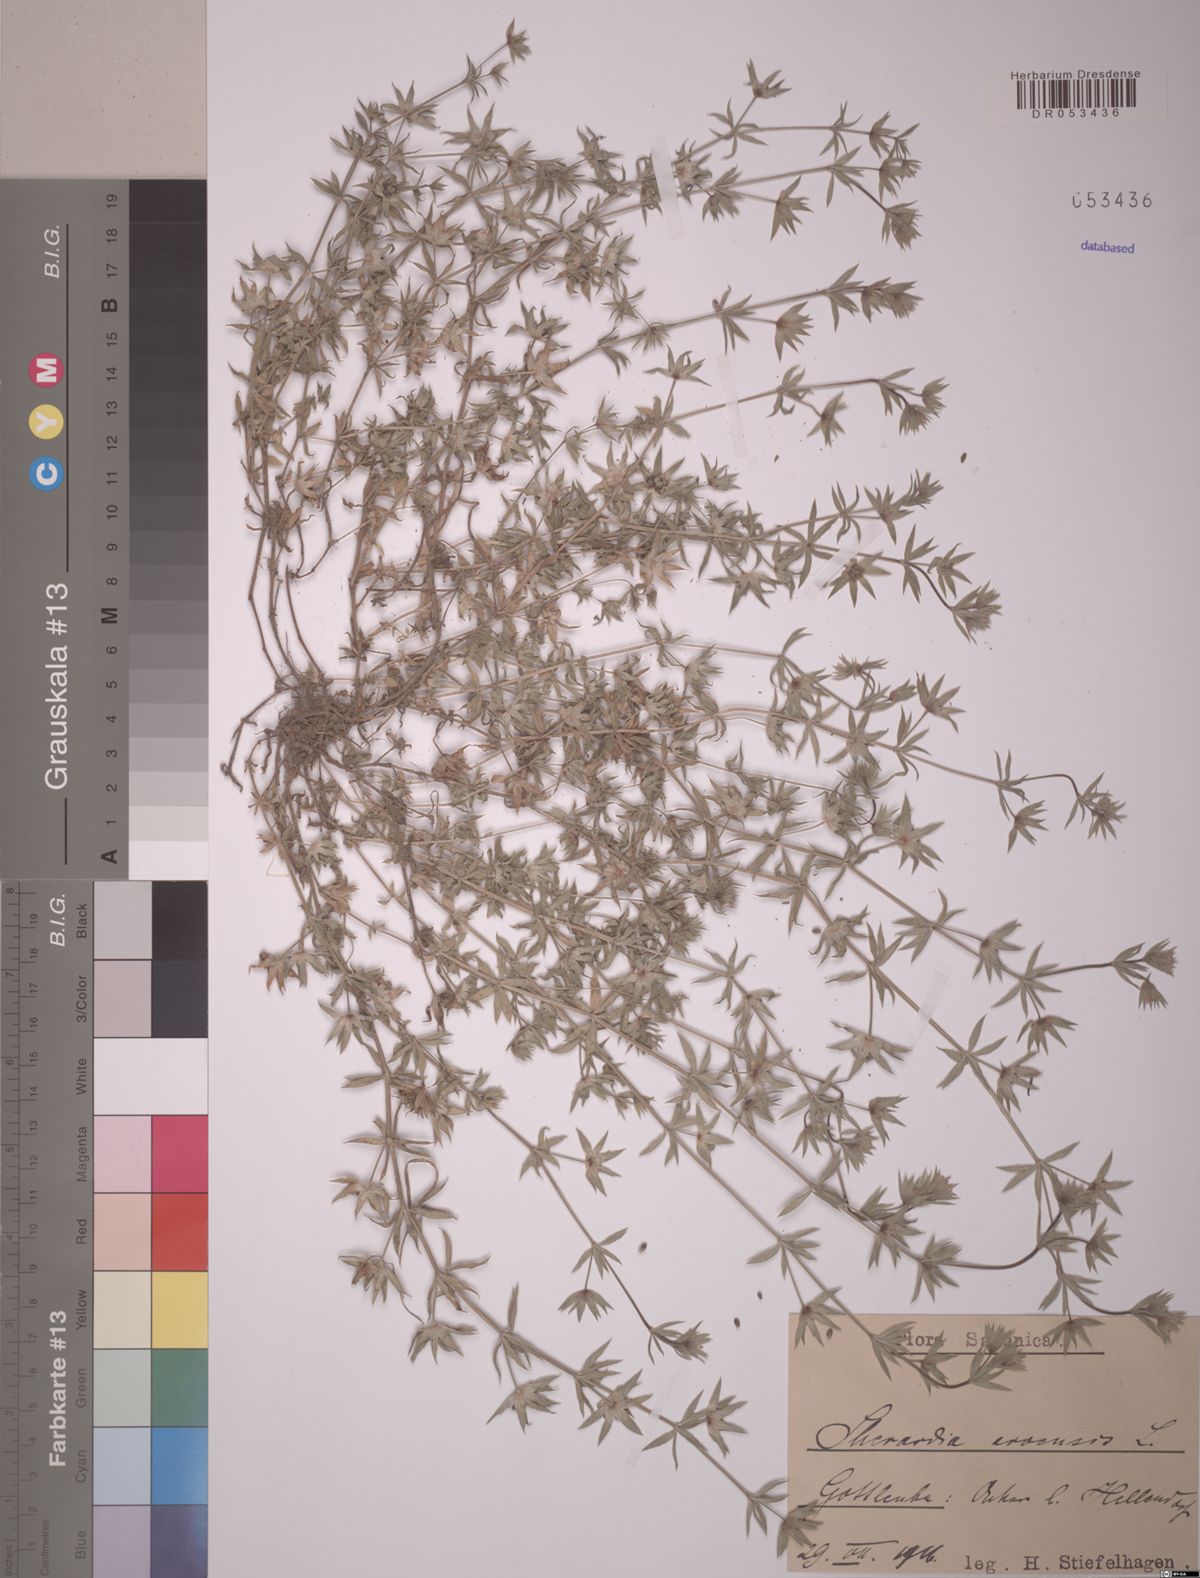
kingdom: Plantae
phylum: Tracheophyta
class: Magnoliopsida
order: Gentianales
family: Rubiaceae
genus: Sherardia
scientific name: Sherardia arvensis
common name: Field madder
